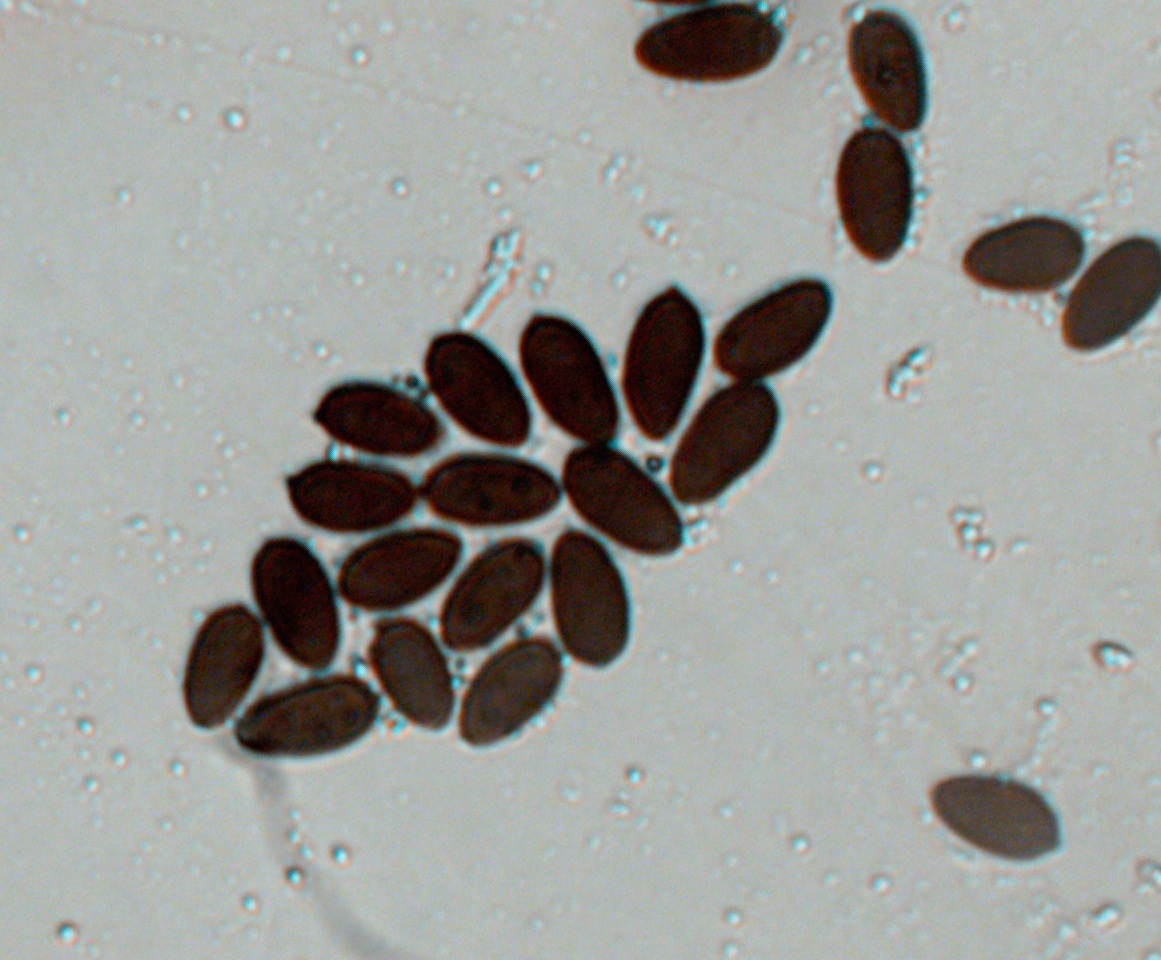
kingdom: Fungi
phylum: Basidiomycota
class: Agaricomycetes
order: Agaricales
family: Psathyrellaceae
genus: Parasola
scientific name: Parasola auricoma
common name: hansens hjulhat
